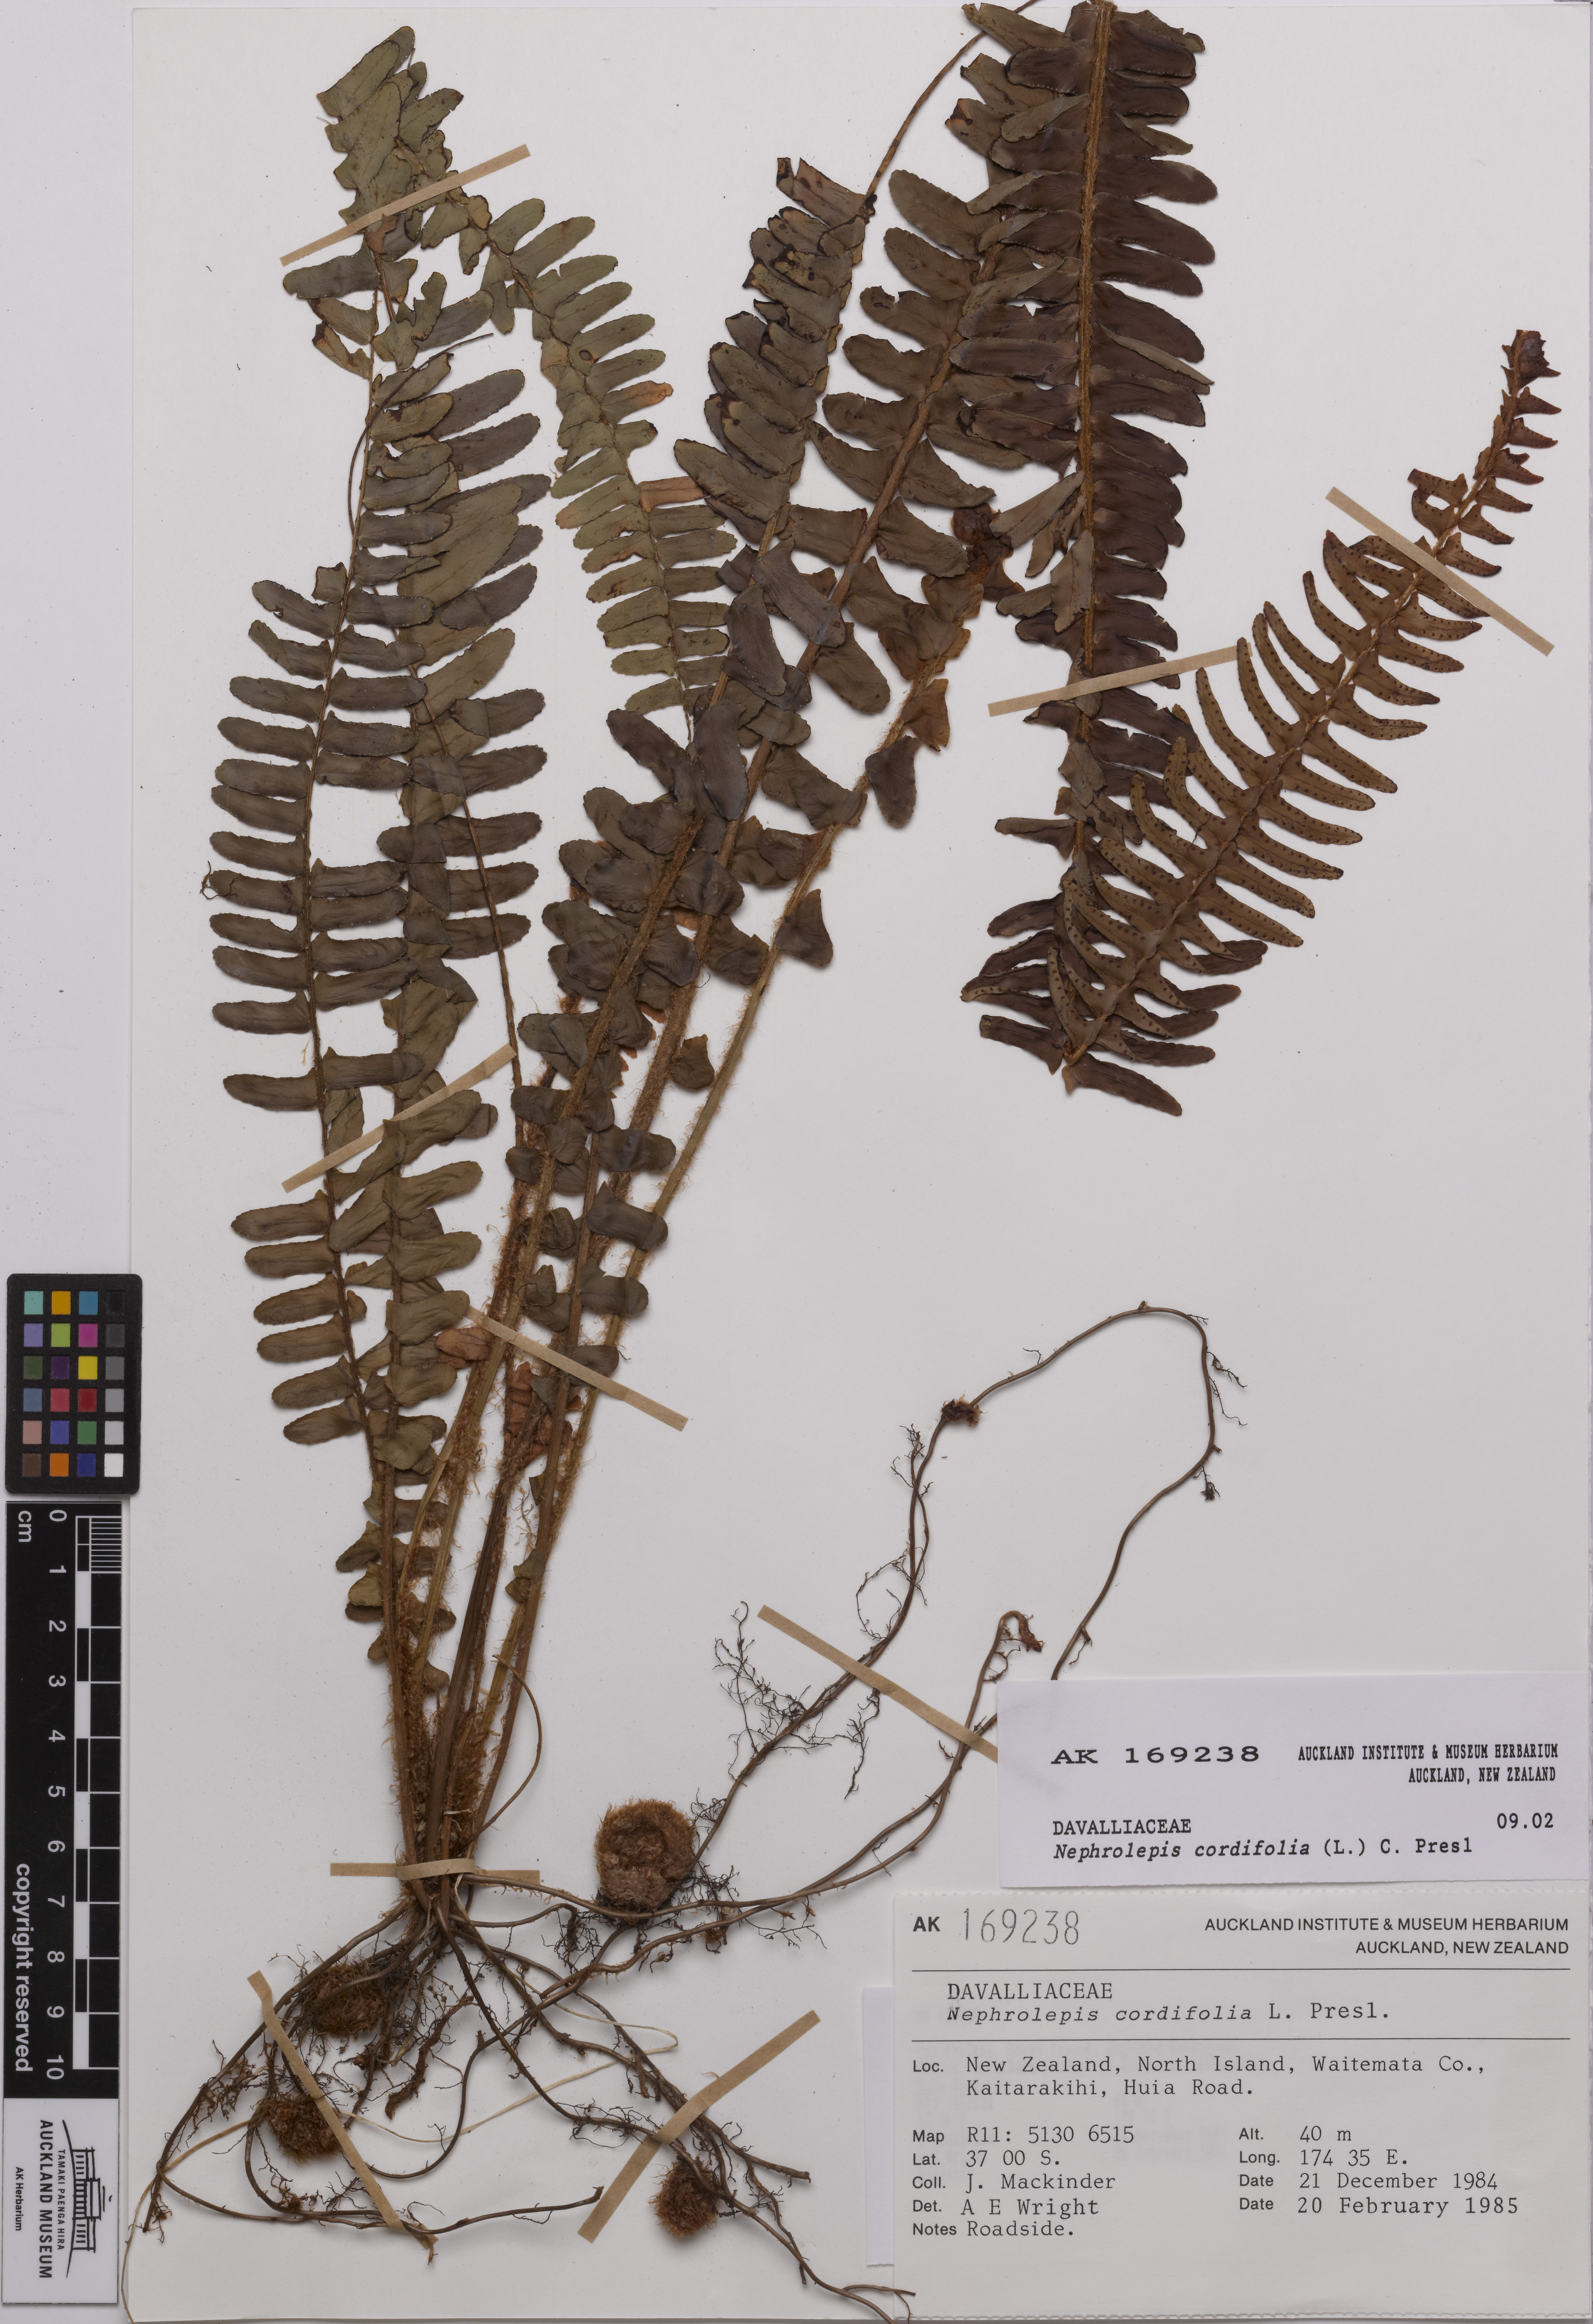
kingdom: Plantae
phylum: Tracheophyta
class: Polypodiopsida
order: Polypodiales
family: Nephrolepidaceae
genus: Nephrolepis
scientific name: Nephrolepis cordifolia
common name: Narrow swordfern
